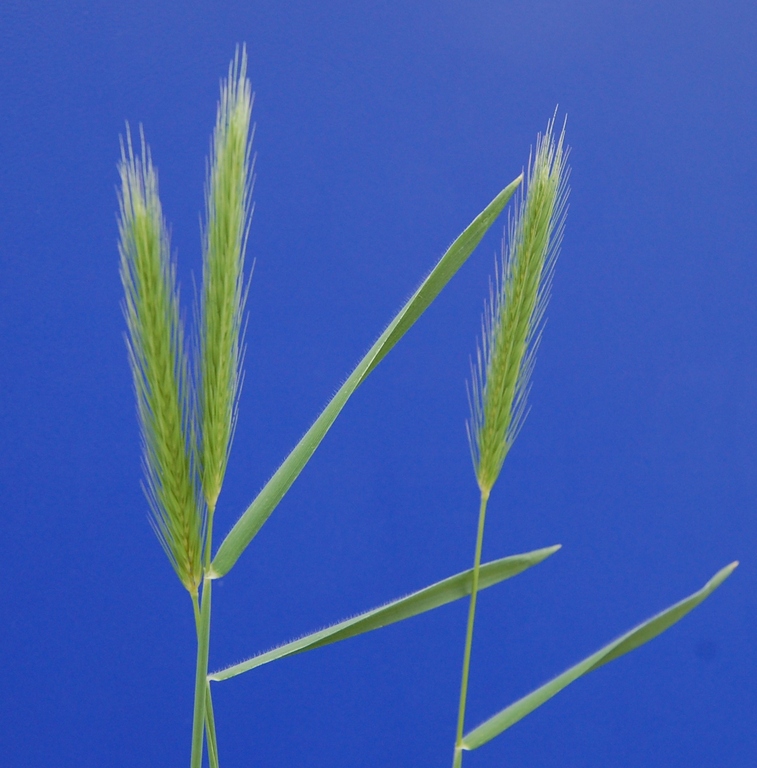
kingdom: Plantae
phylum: Tracheophyta
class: Liliopsida
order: Poales
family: Poaceae
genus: Hordeum
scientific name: Hordeum secalinum
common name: Meadow barley
